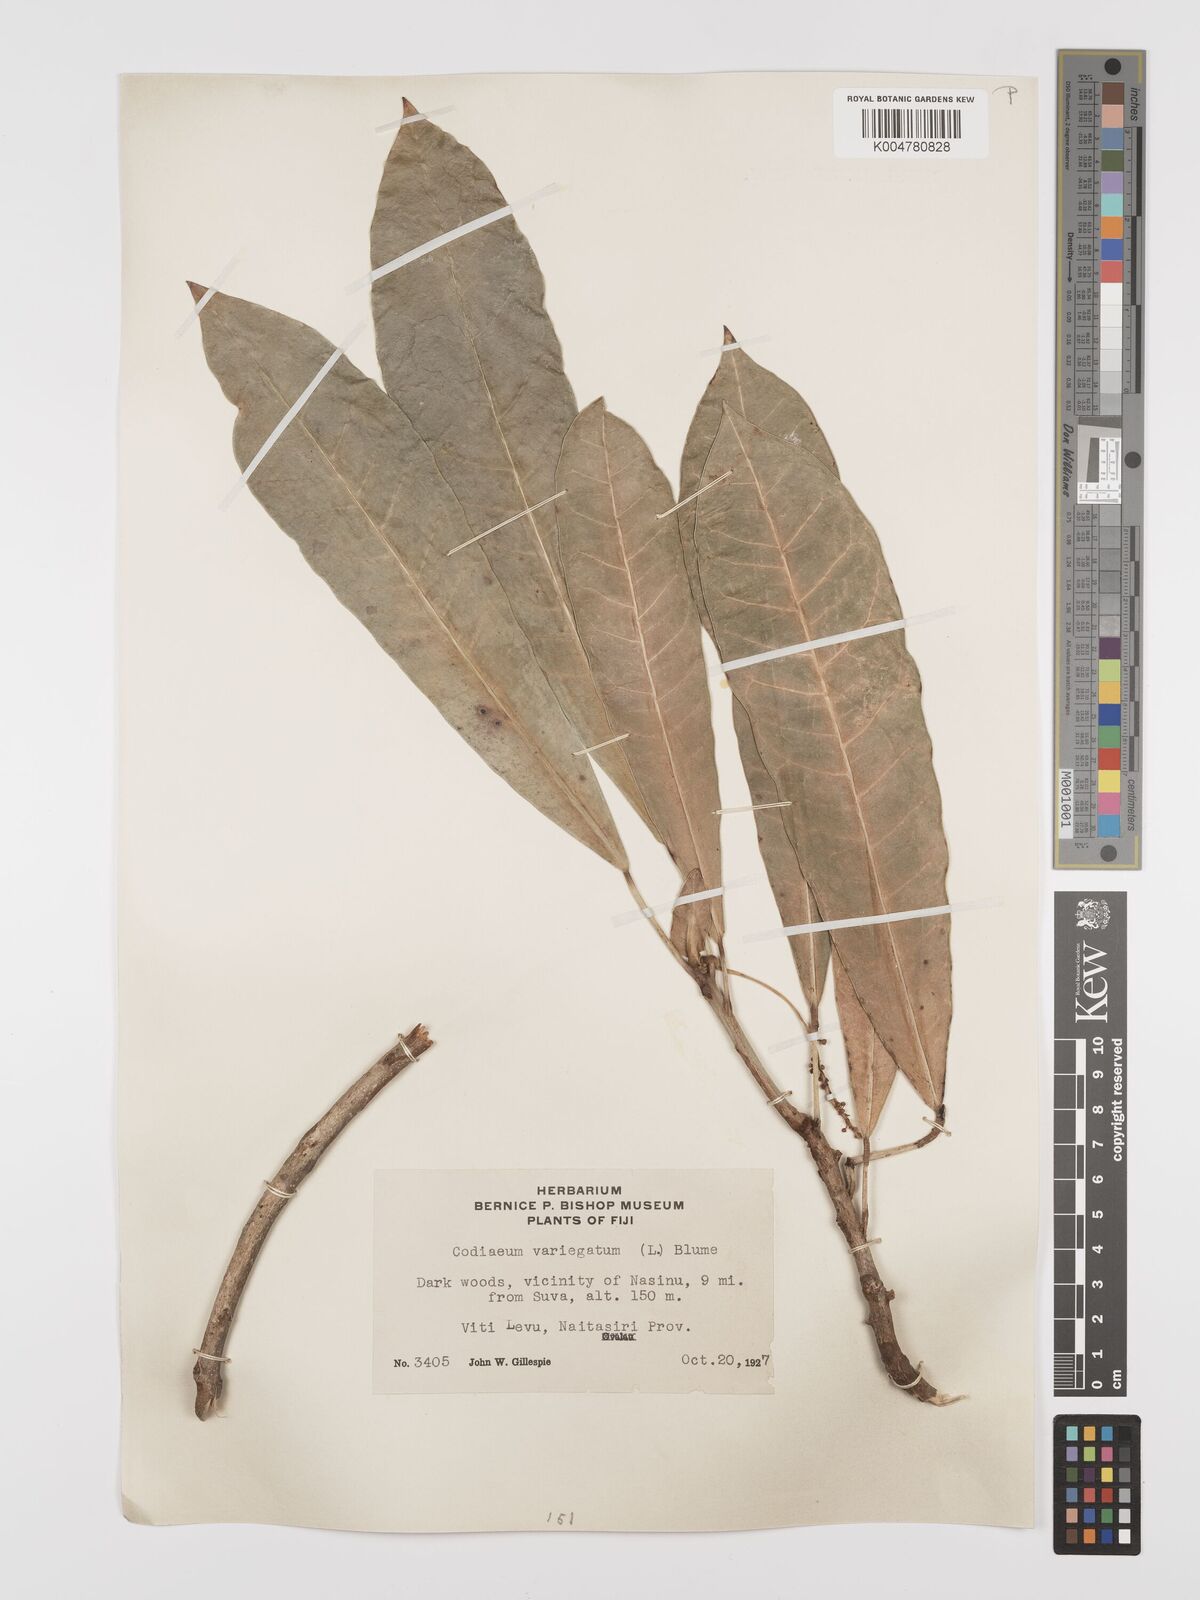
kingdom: Plantae
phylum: Tracheophyta
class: Magnoliopsida
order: Malpighiales
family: Euphorbiaceae
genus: Codiaeum
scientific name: Codiaeum variegatum
